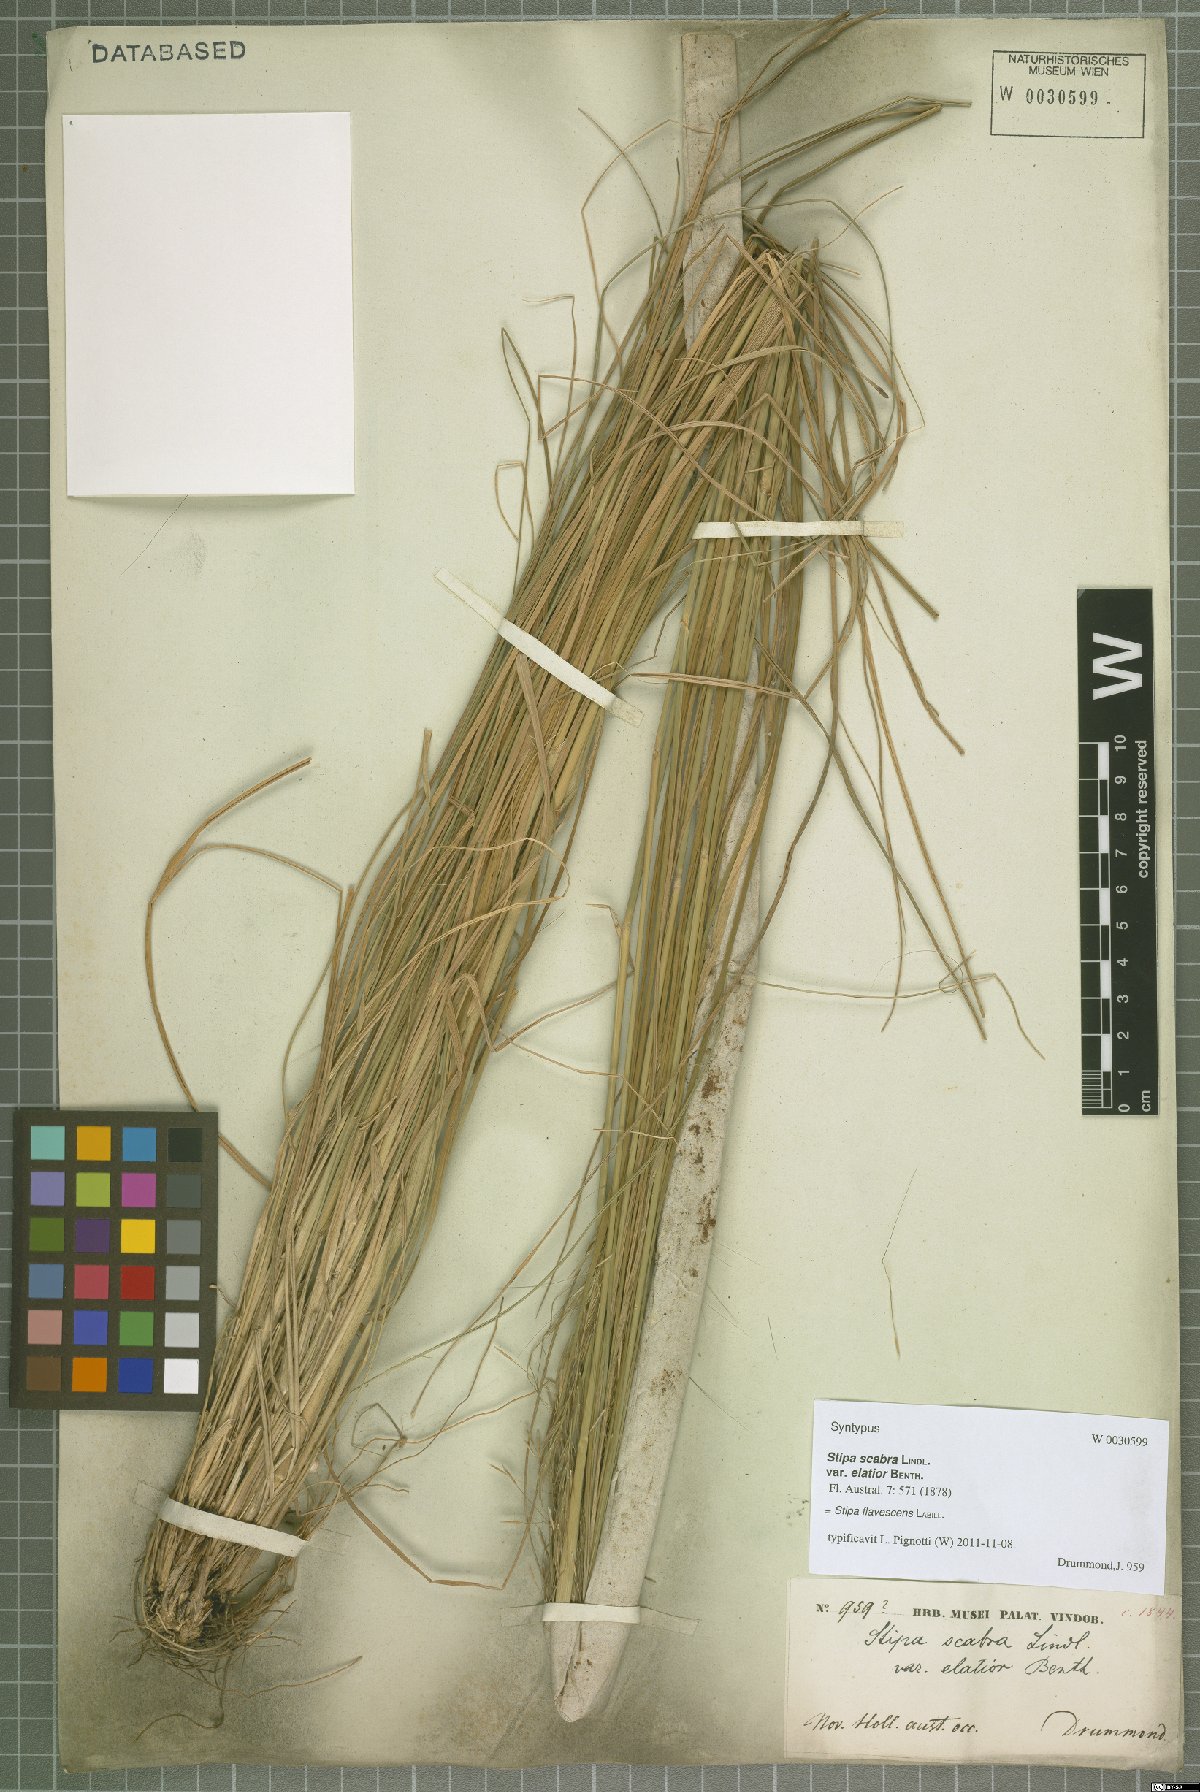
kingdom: Plantae
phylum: Tracheophyta
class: Liliopsida
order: Poales
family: Poaceae
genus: Austrostipa
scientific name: Austrostipa flavescens
